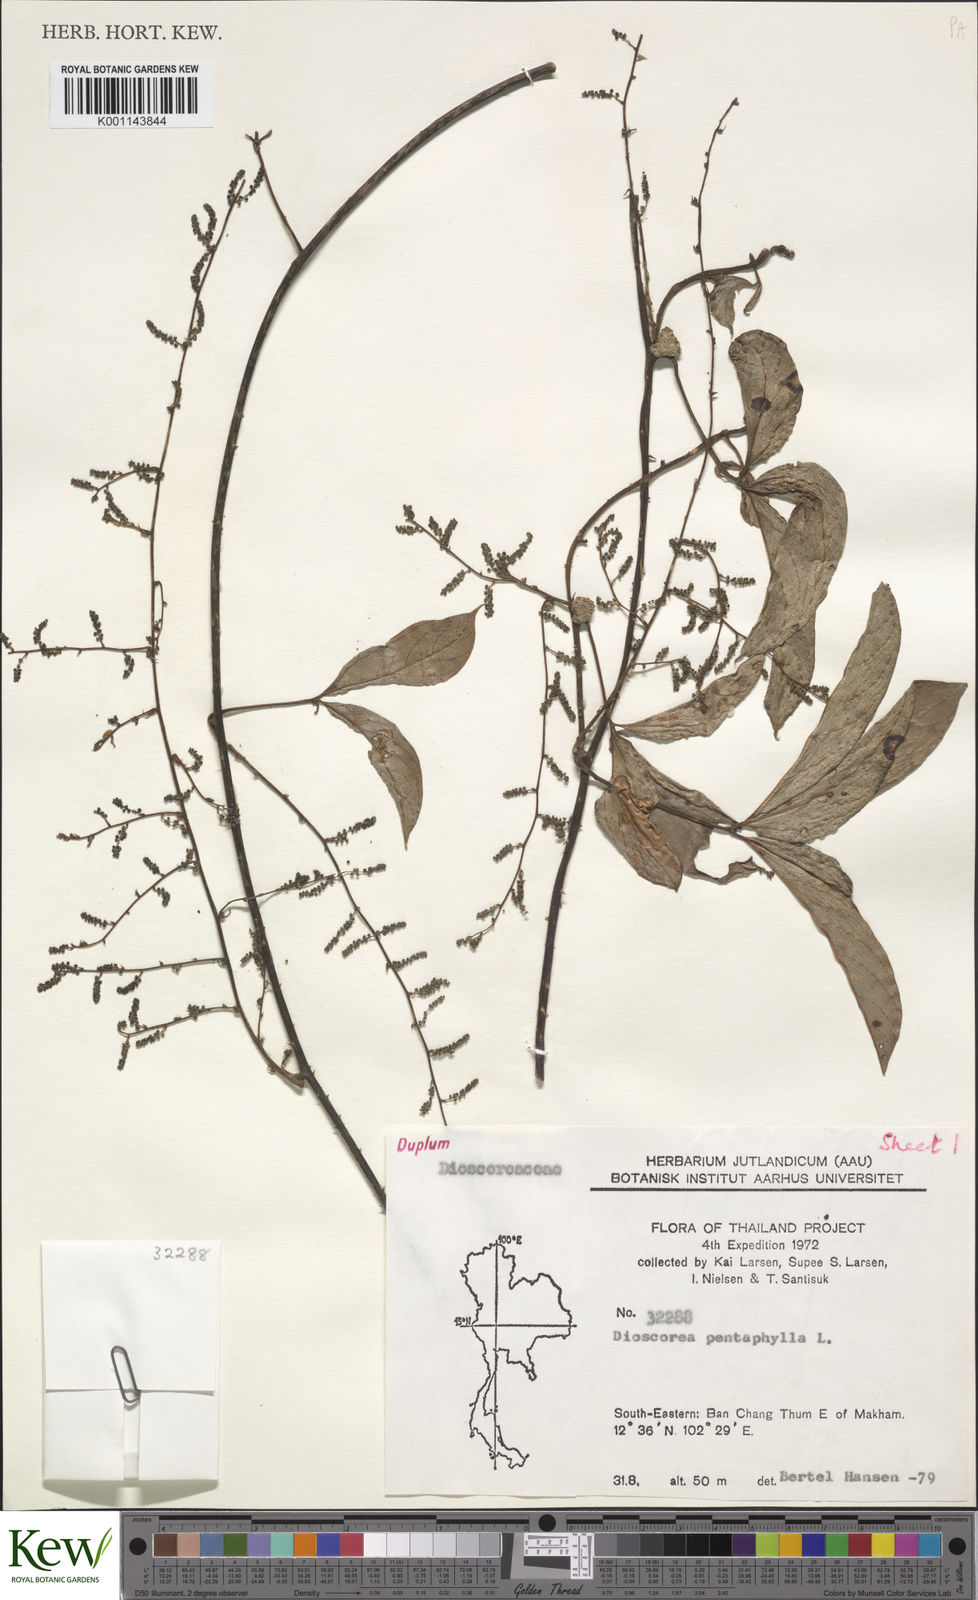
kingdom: Plantae
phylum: Tracheophyta
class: Liliopsida
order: Dioscoreales
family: Dioscoreaceae
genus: Dioscorea
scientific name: Dioscorea pentaphylla
